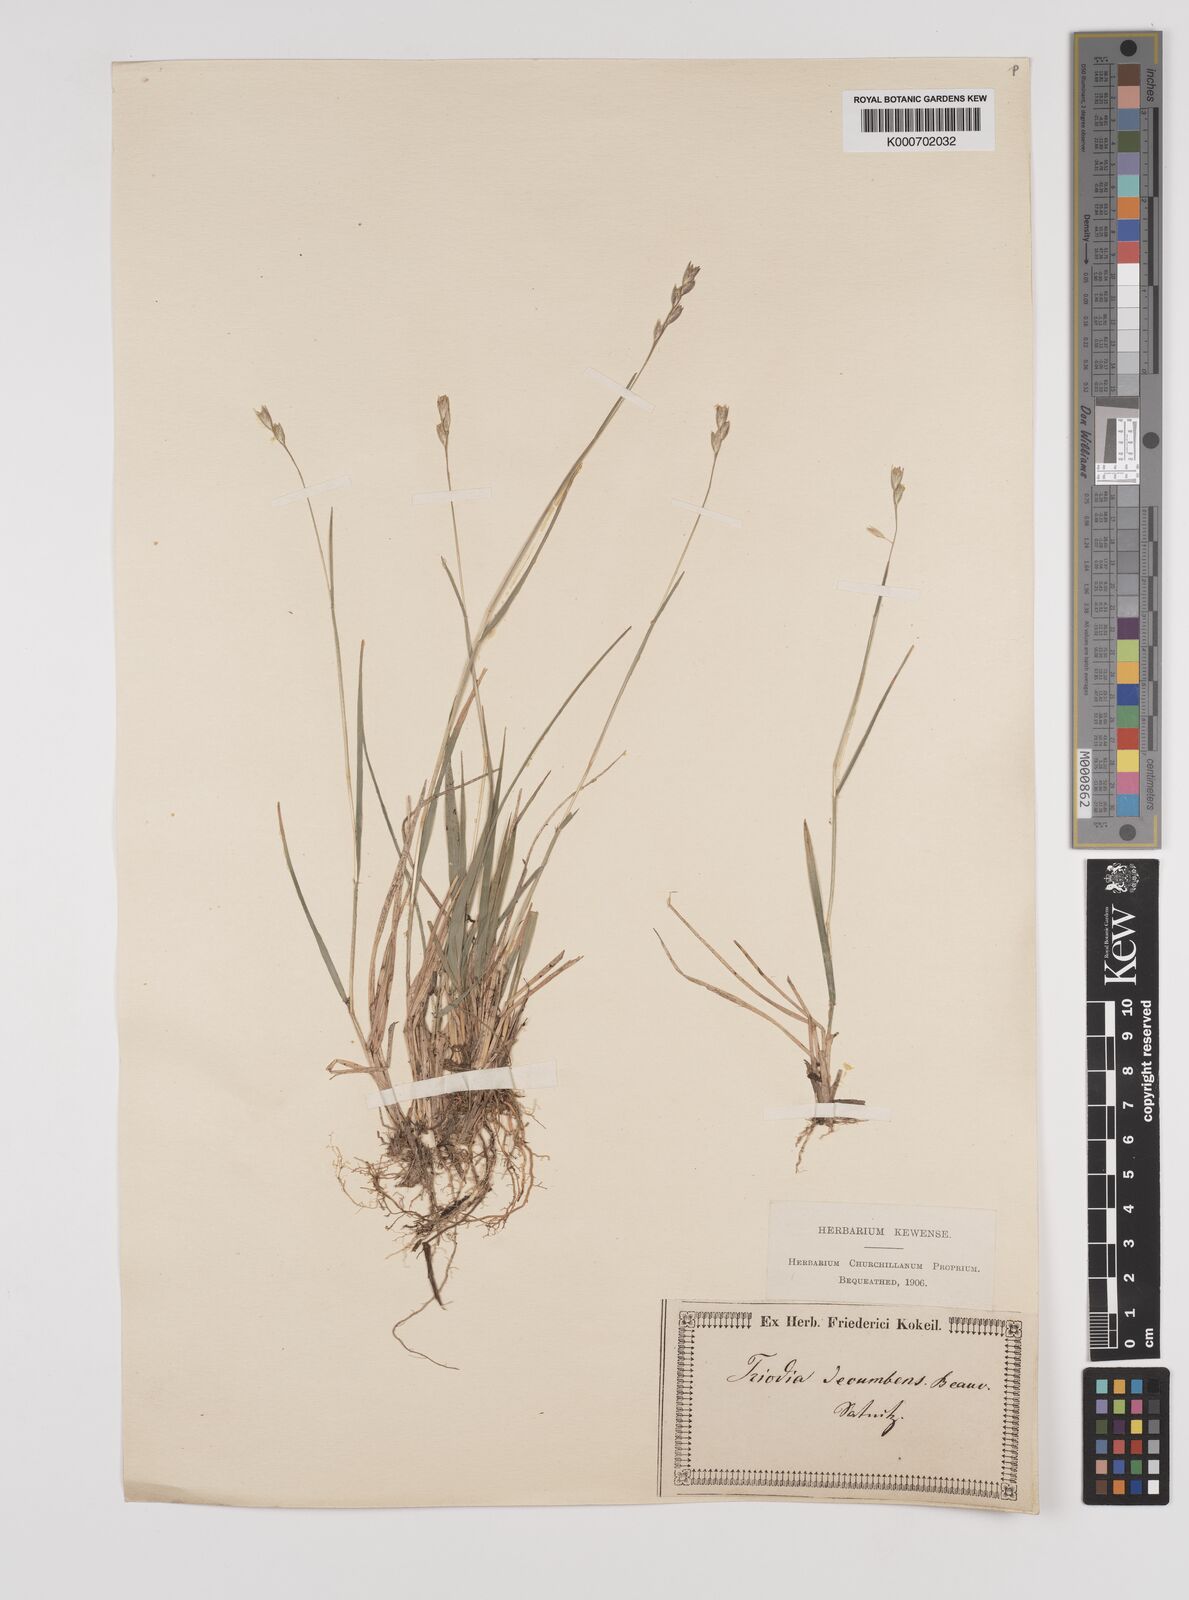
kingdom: Plantae
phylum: Tracheophyta
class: Liliopsida
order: Poales
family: Poaceae
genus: Danthonia
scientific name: Danthonia decumbens
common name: Common heathgrass
